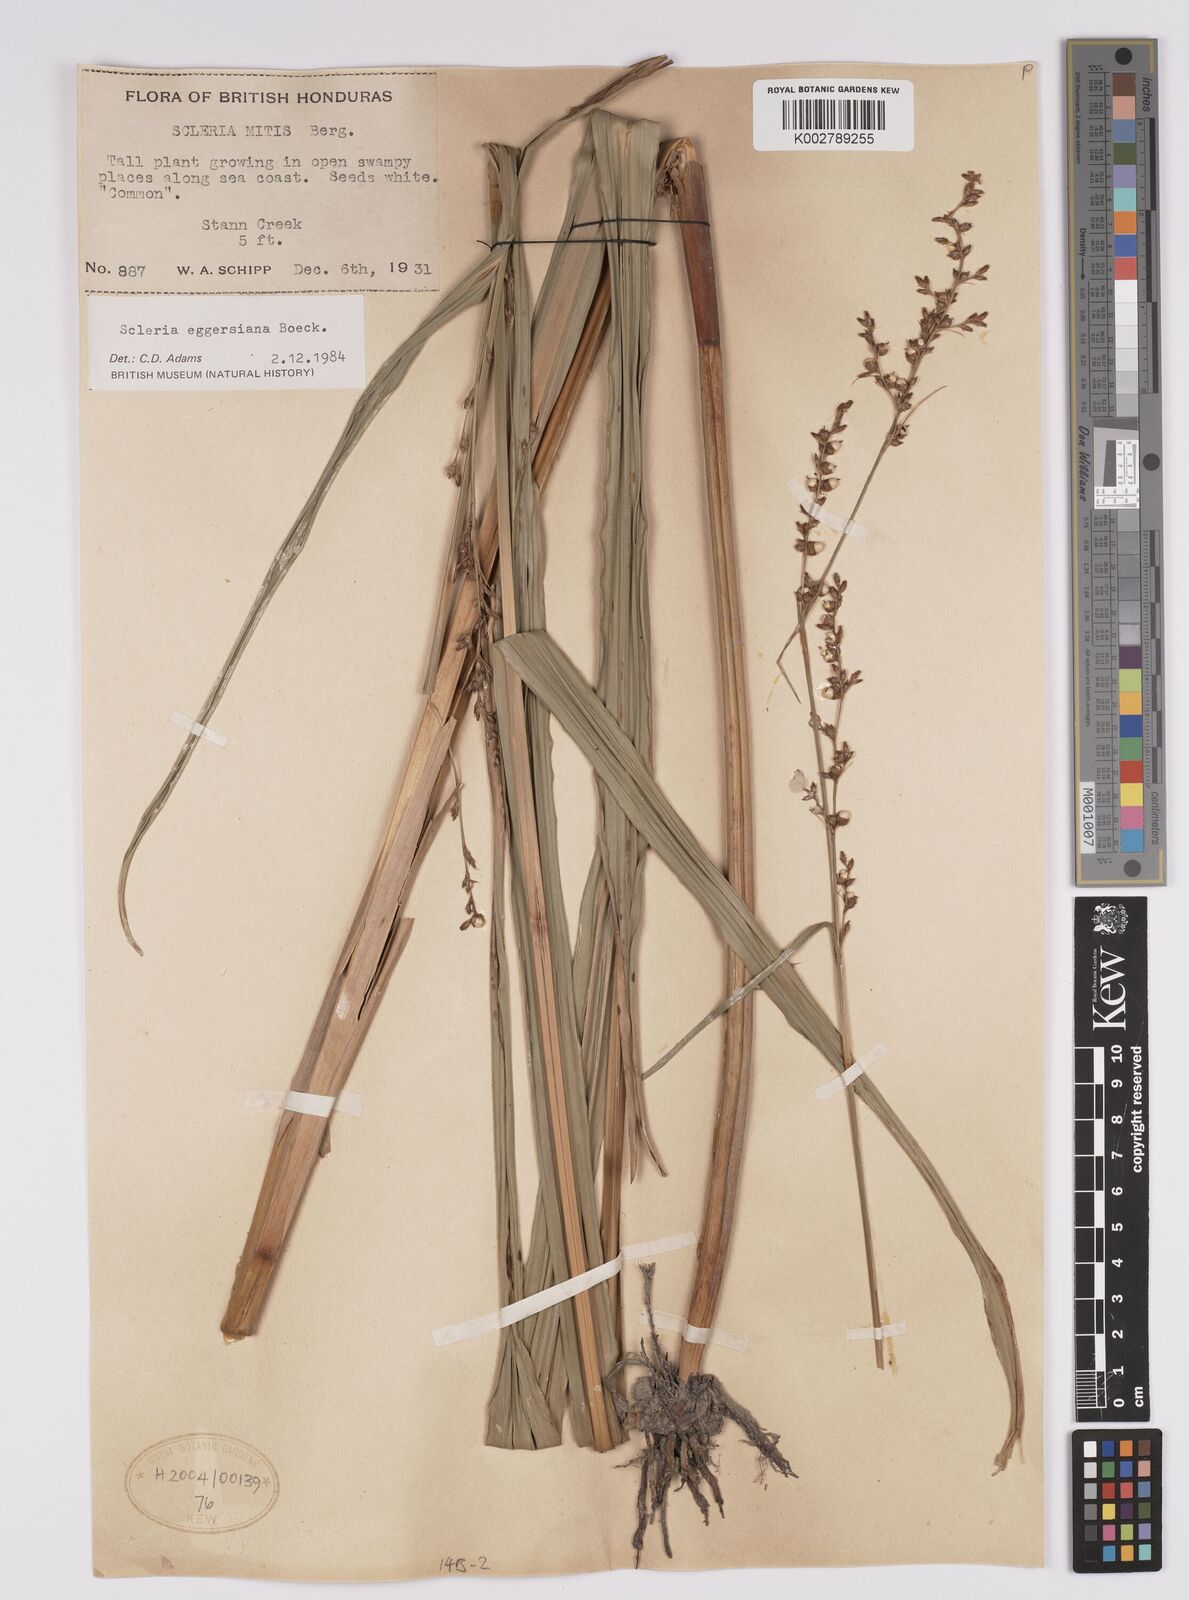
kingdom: Plantae
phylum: Tracheophyta
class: Liliopsida
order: Poales
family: Cyperaceae
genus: Scleria
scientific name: Scleria eggersiana
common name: Eggers' nutrush
